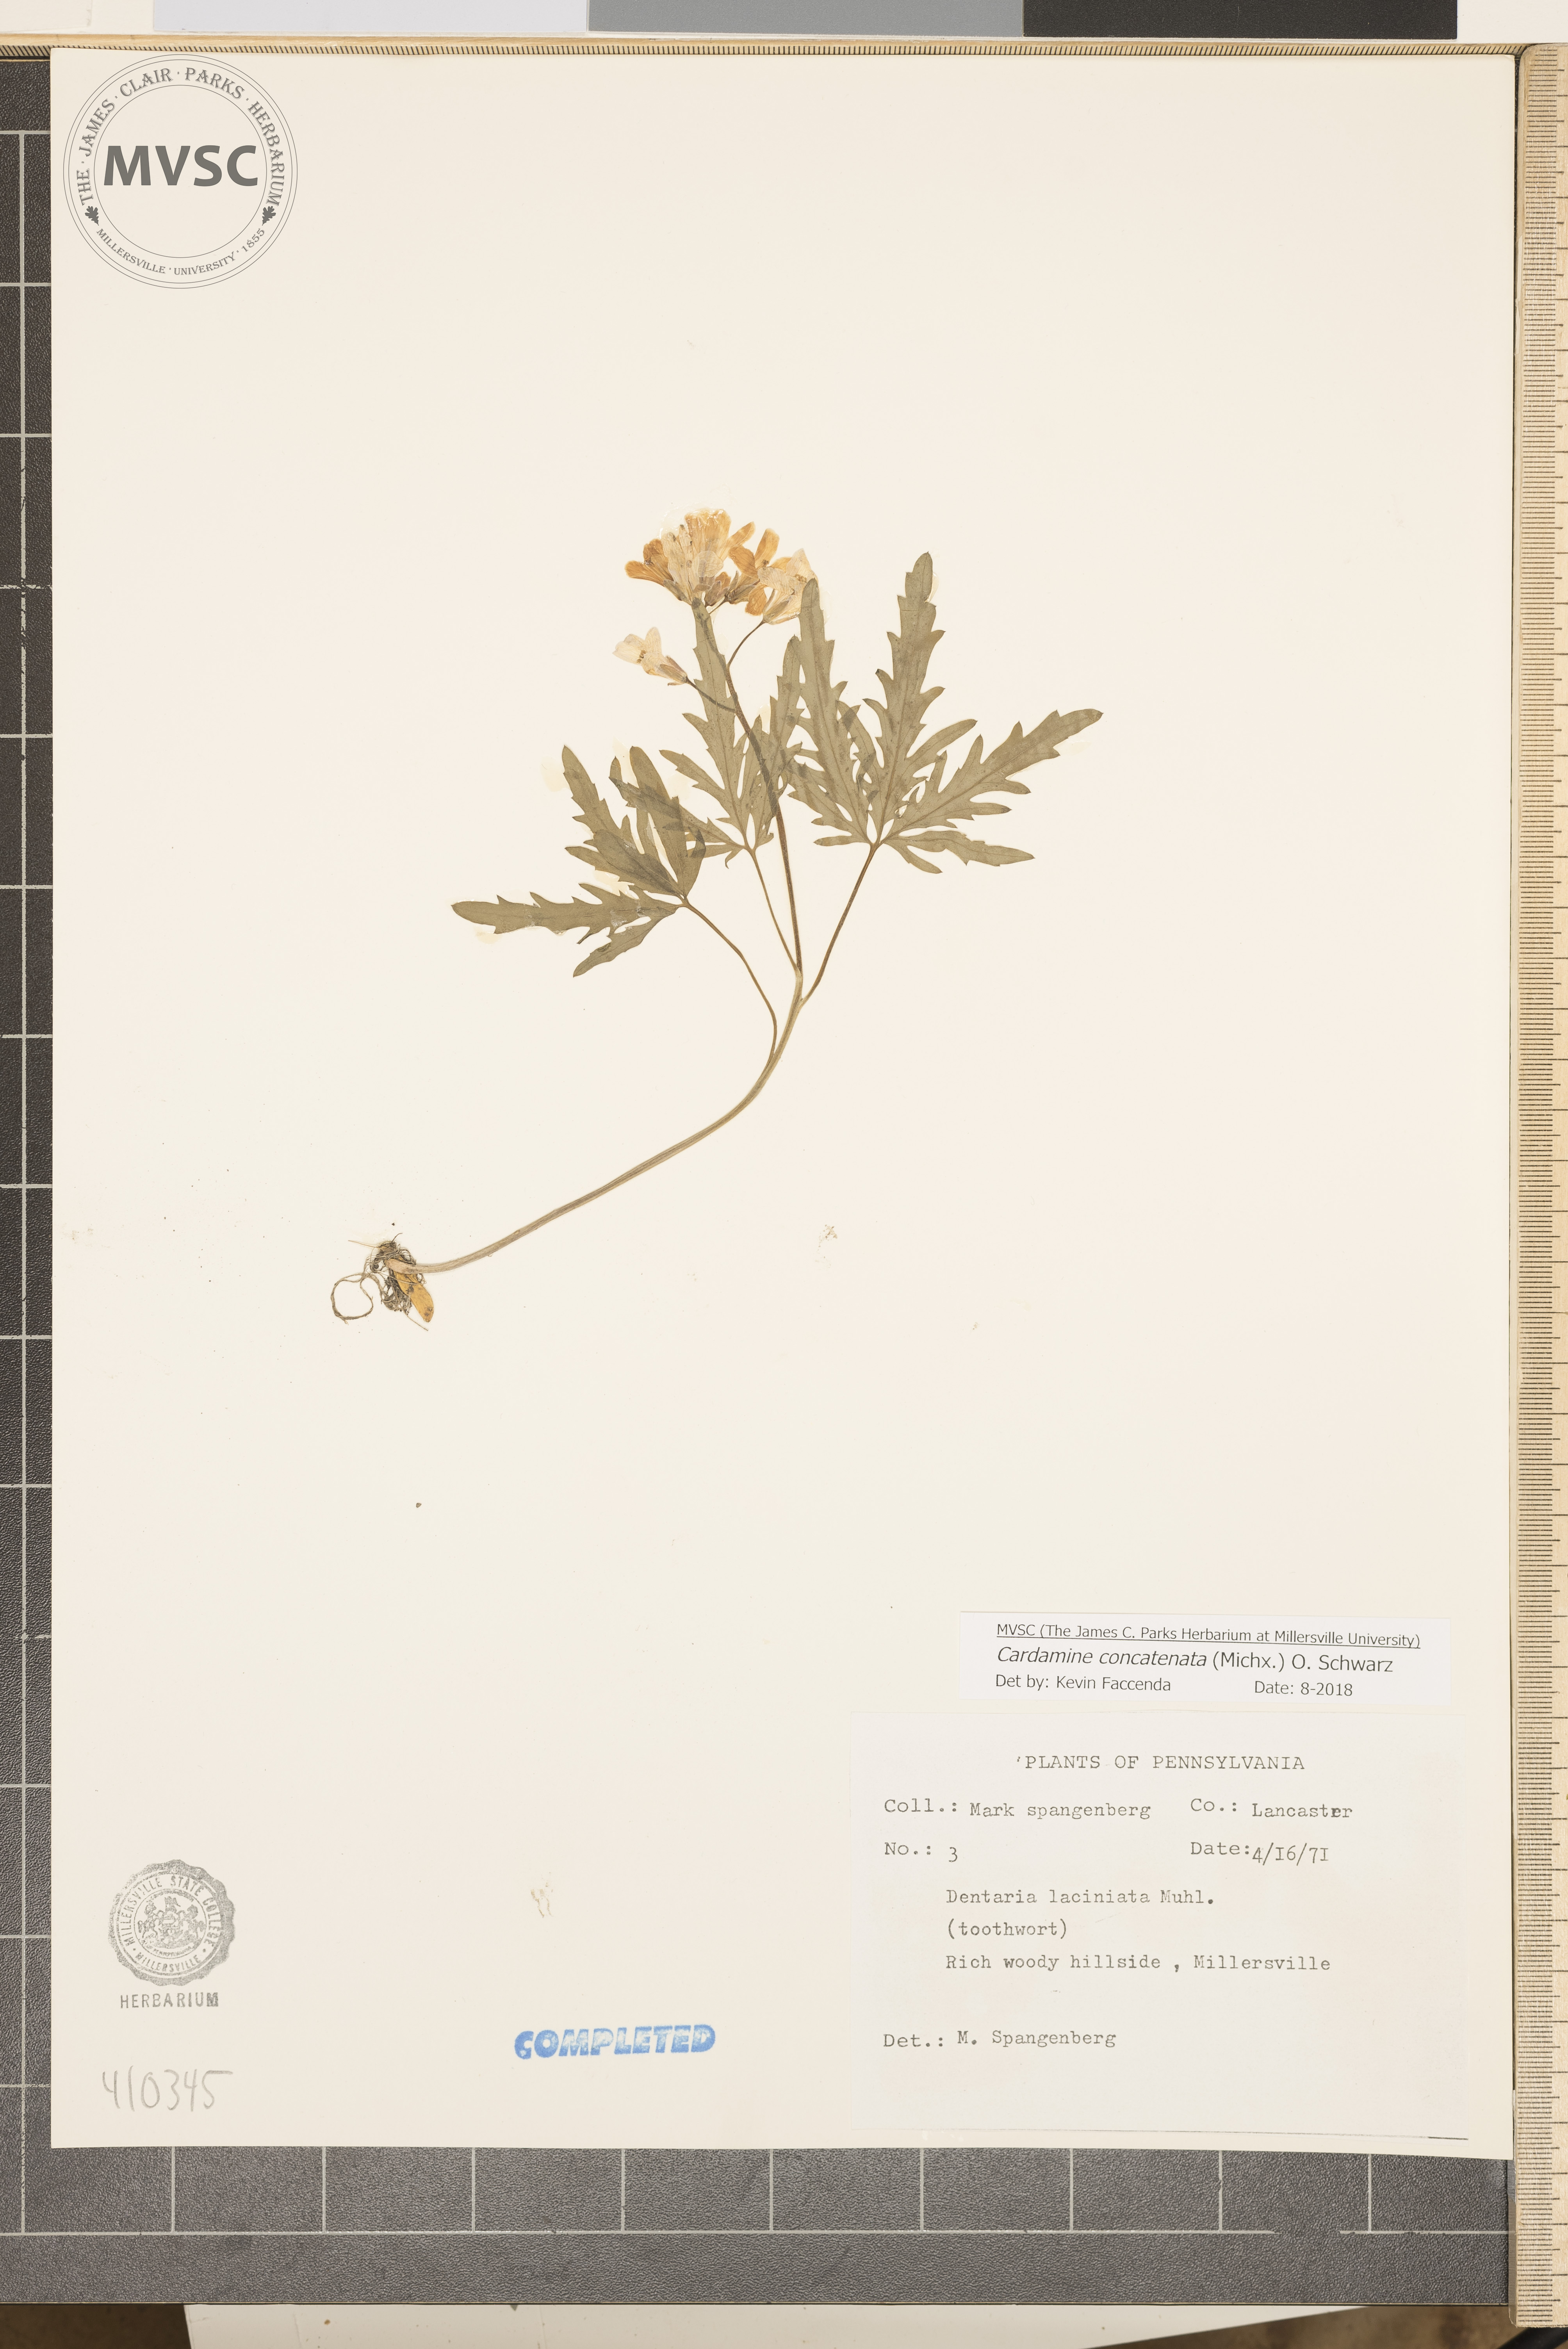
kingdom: Plantae
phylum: Tracheophyta
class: Magnoliopsida
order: Brassicales
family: Brassicaceae
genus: Cardamine
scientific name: Cardamine concatenata
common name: Cut-leaf toothcup
